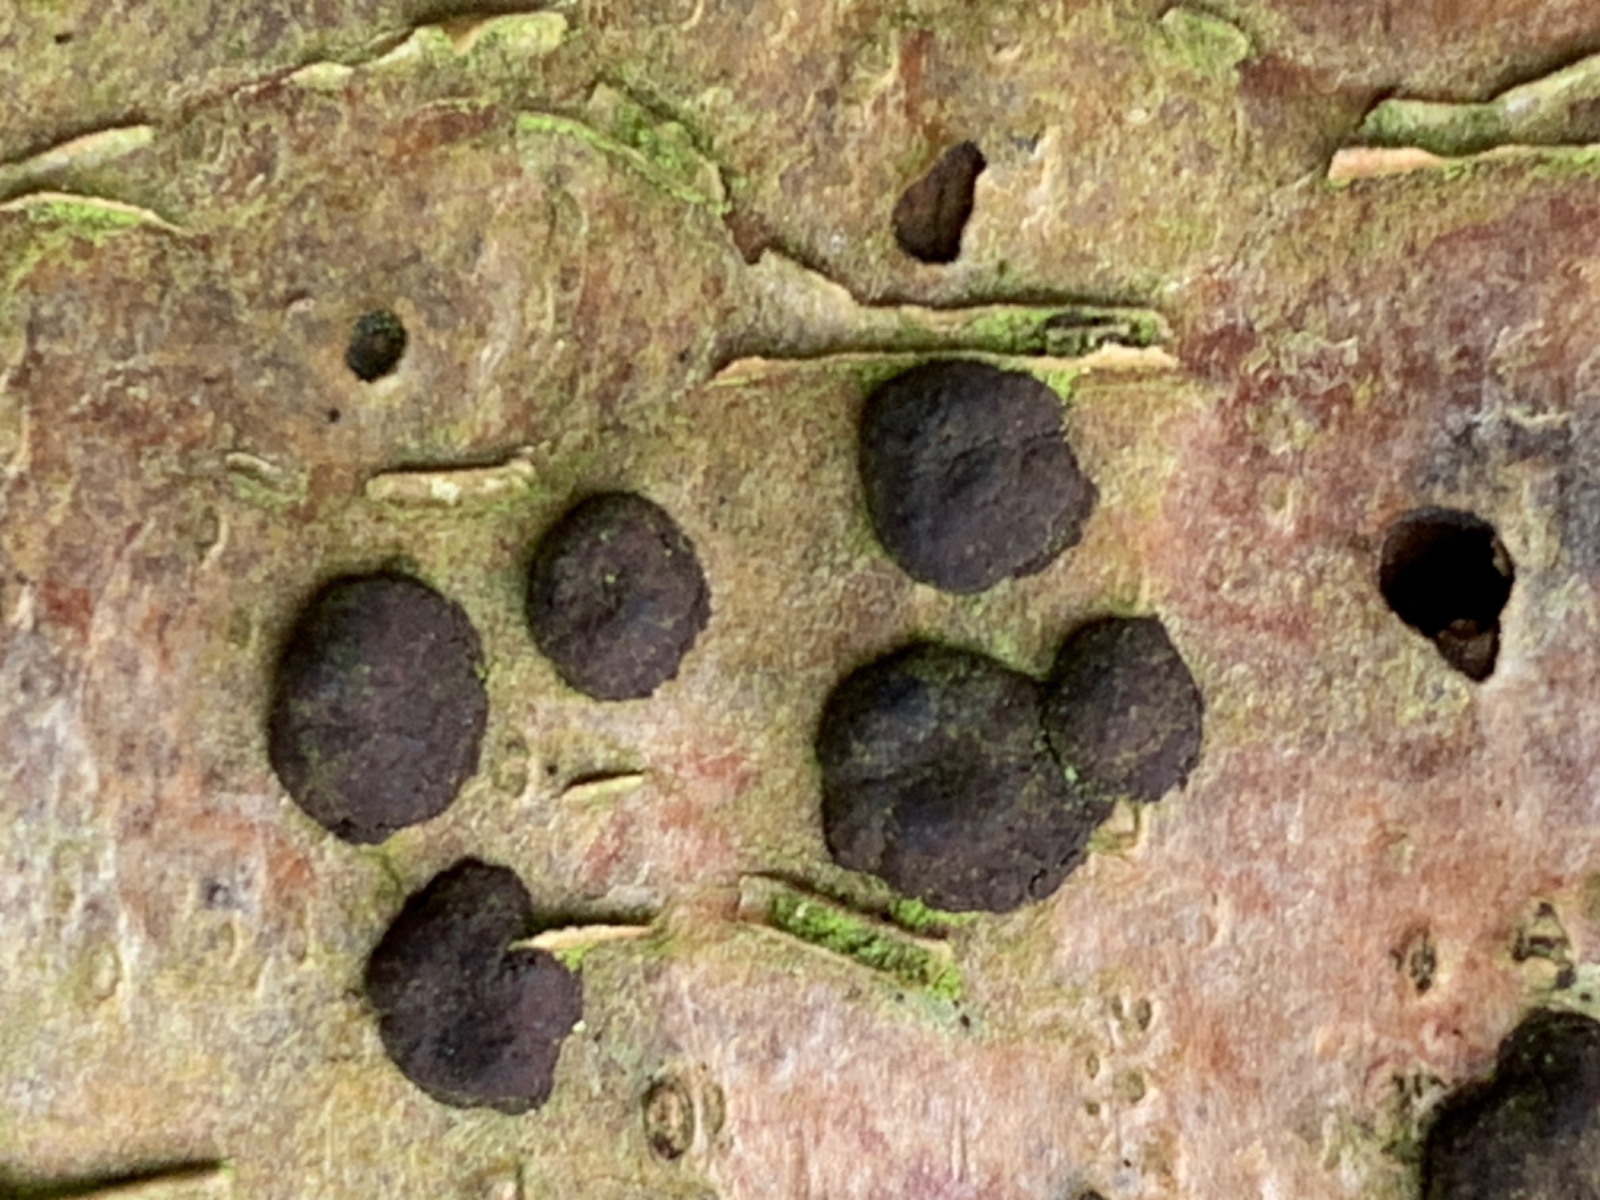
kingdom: Fungi
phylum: Ascomycota
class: Sordariomycetes
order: Xylariales
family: Hypoxylaceae
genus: Hypoxylon
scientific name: Hypoxylon fuscum
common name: kegleformet kulbær
